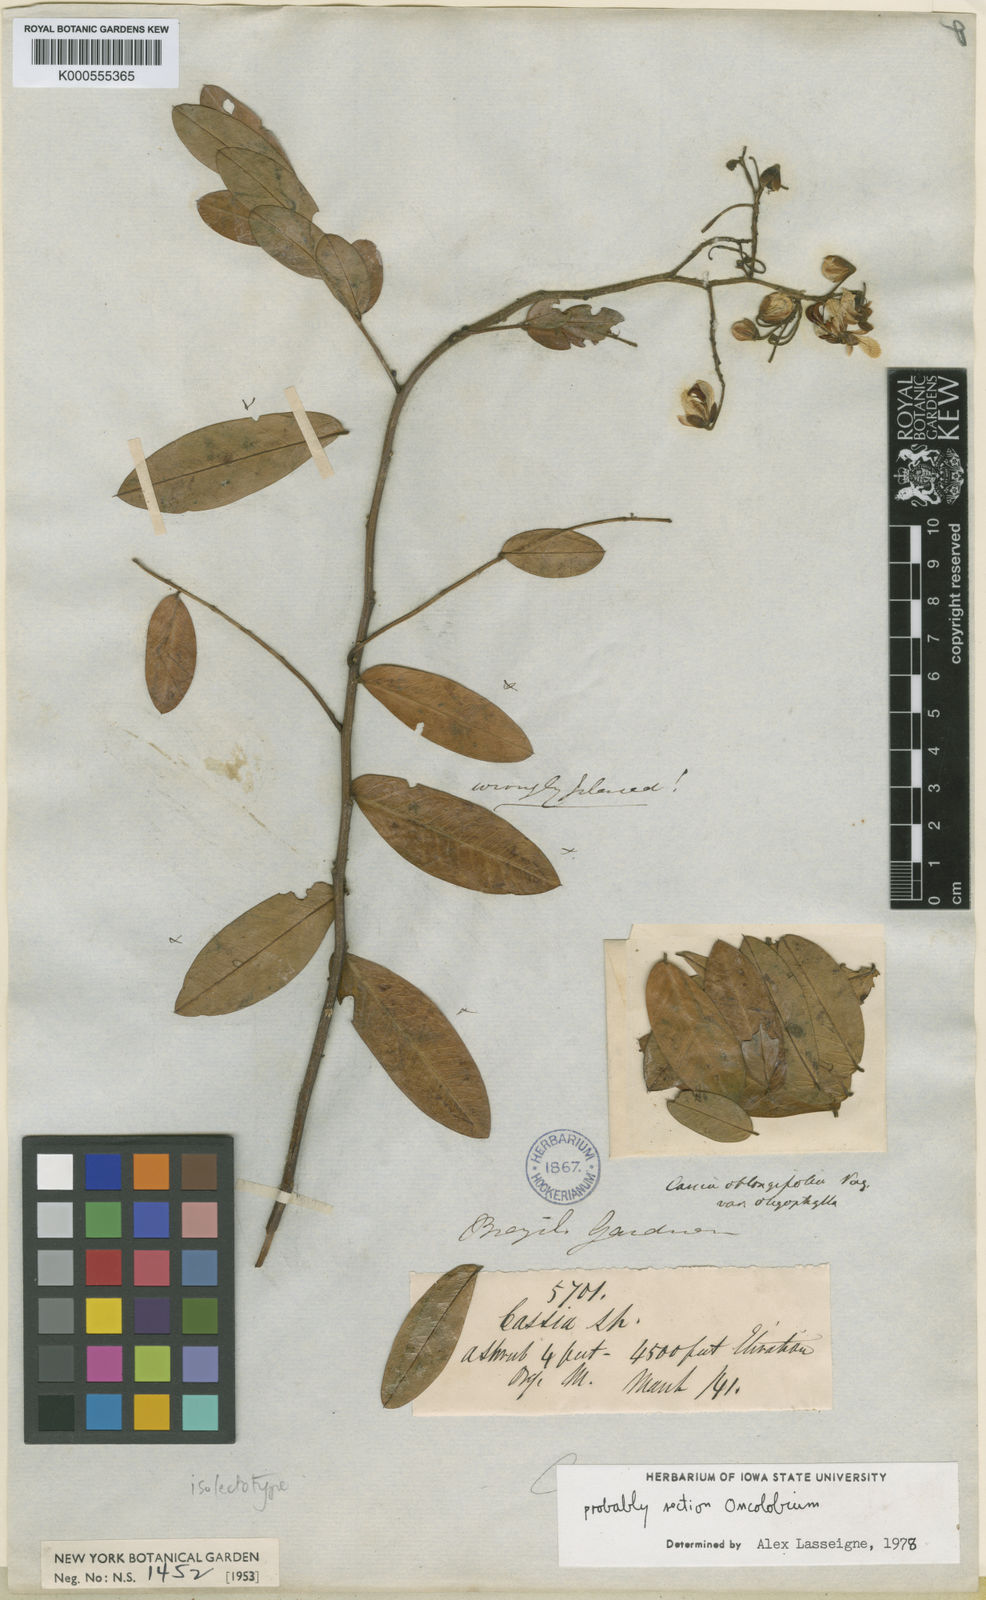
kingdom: Plantae
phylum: Tracheophyta
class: Magnoliopsida
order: Fabales
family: Fabaceae
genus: Senna
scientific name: Senna neglecta
